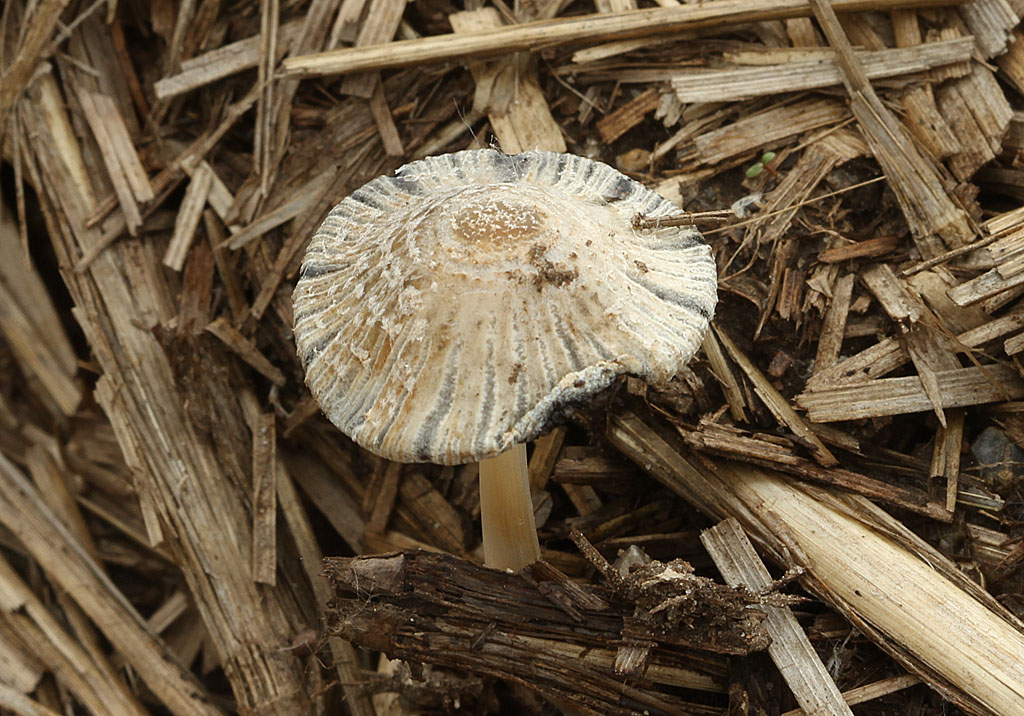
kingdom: Fungi
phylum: Basidiomycota
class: Agaricomycetes
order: Agaricales
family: Psathyrellaceae
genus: Coprinellus
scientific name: Coprinellus flocculosus
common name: fnugget blækhat
